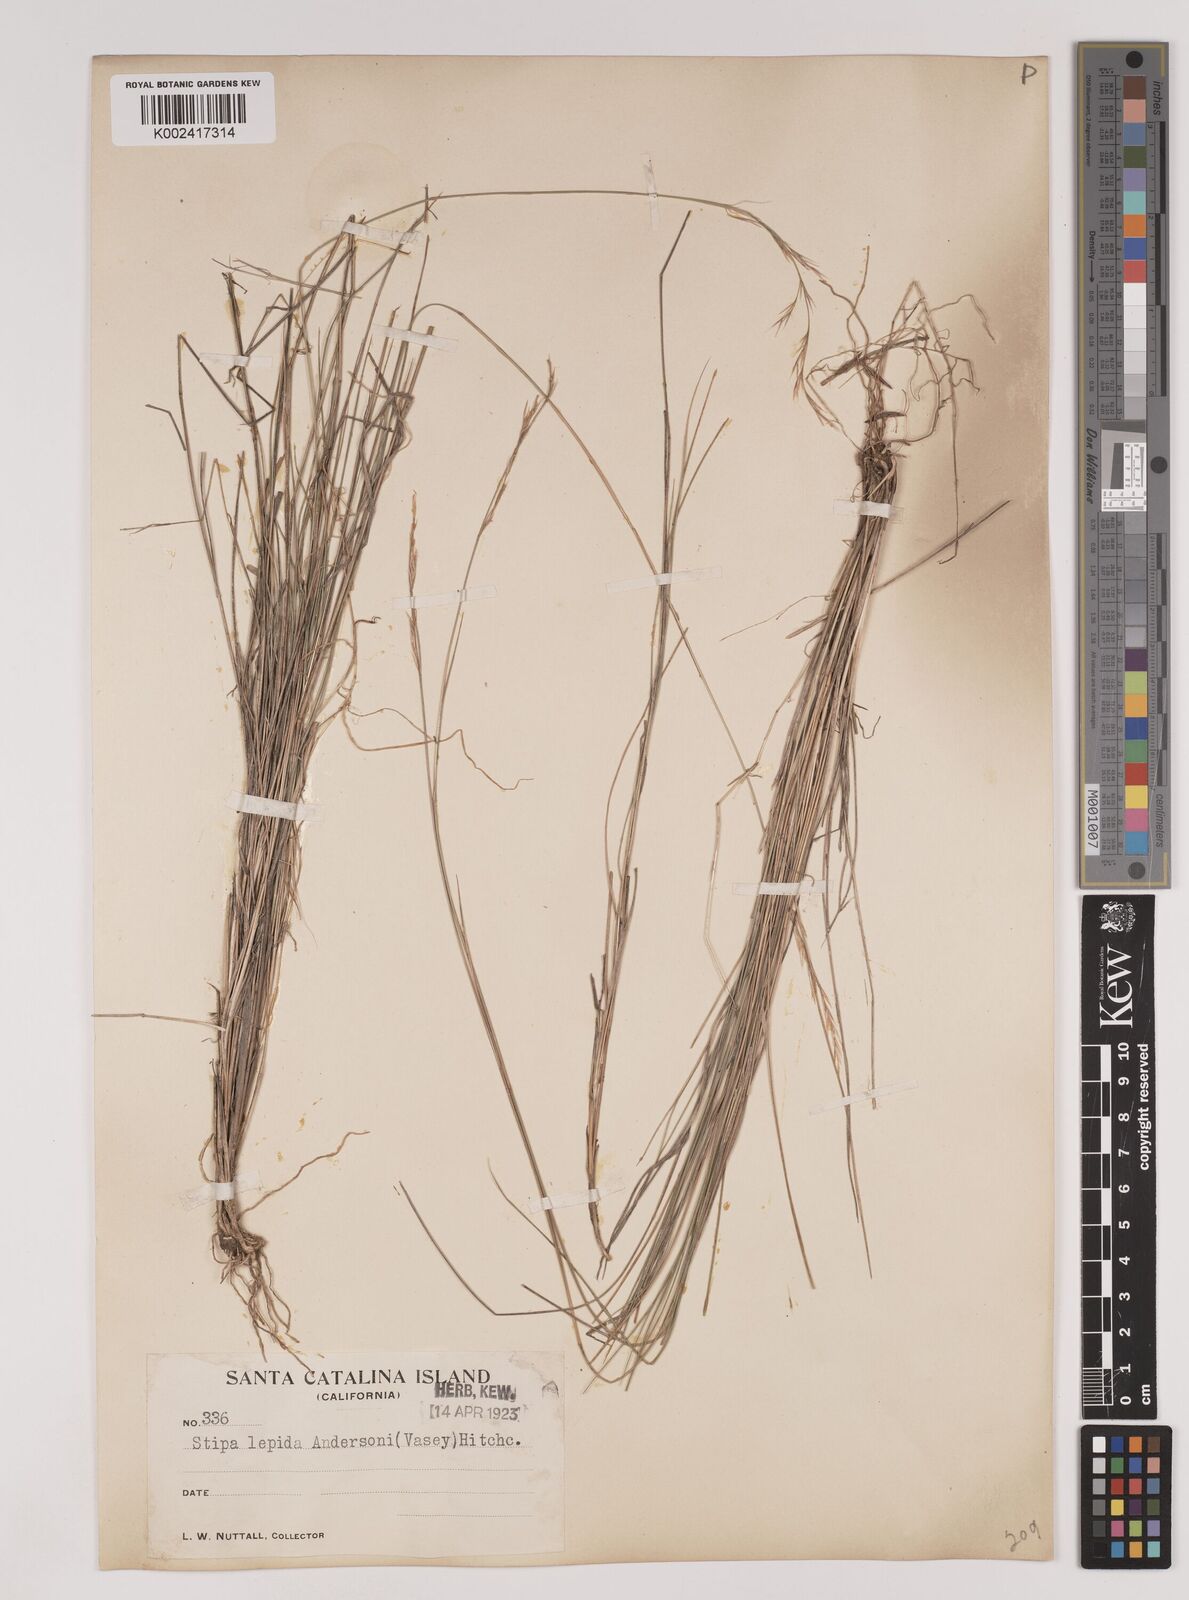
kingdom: Plantae
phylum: Tracheophyta
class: Liliopsida
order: Poales
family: Poaceae
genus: Nassella
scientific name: Nassella lepida
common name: Foothill needlegrass
